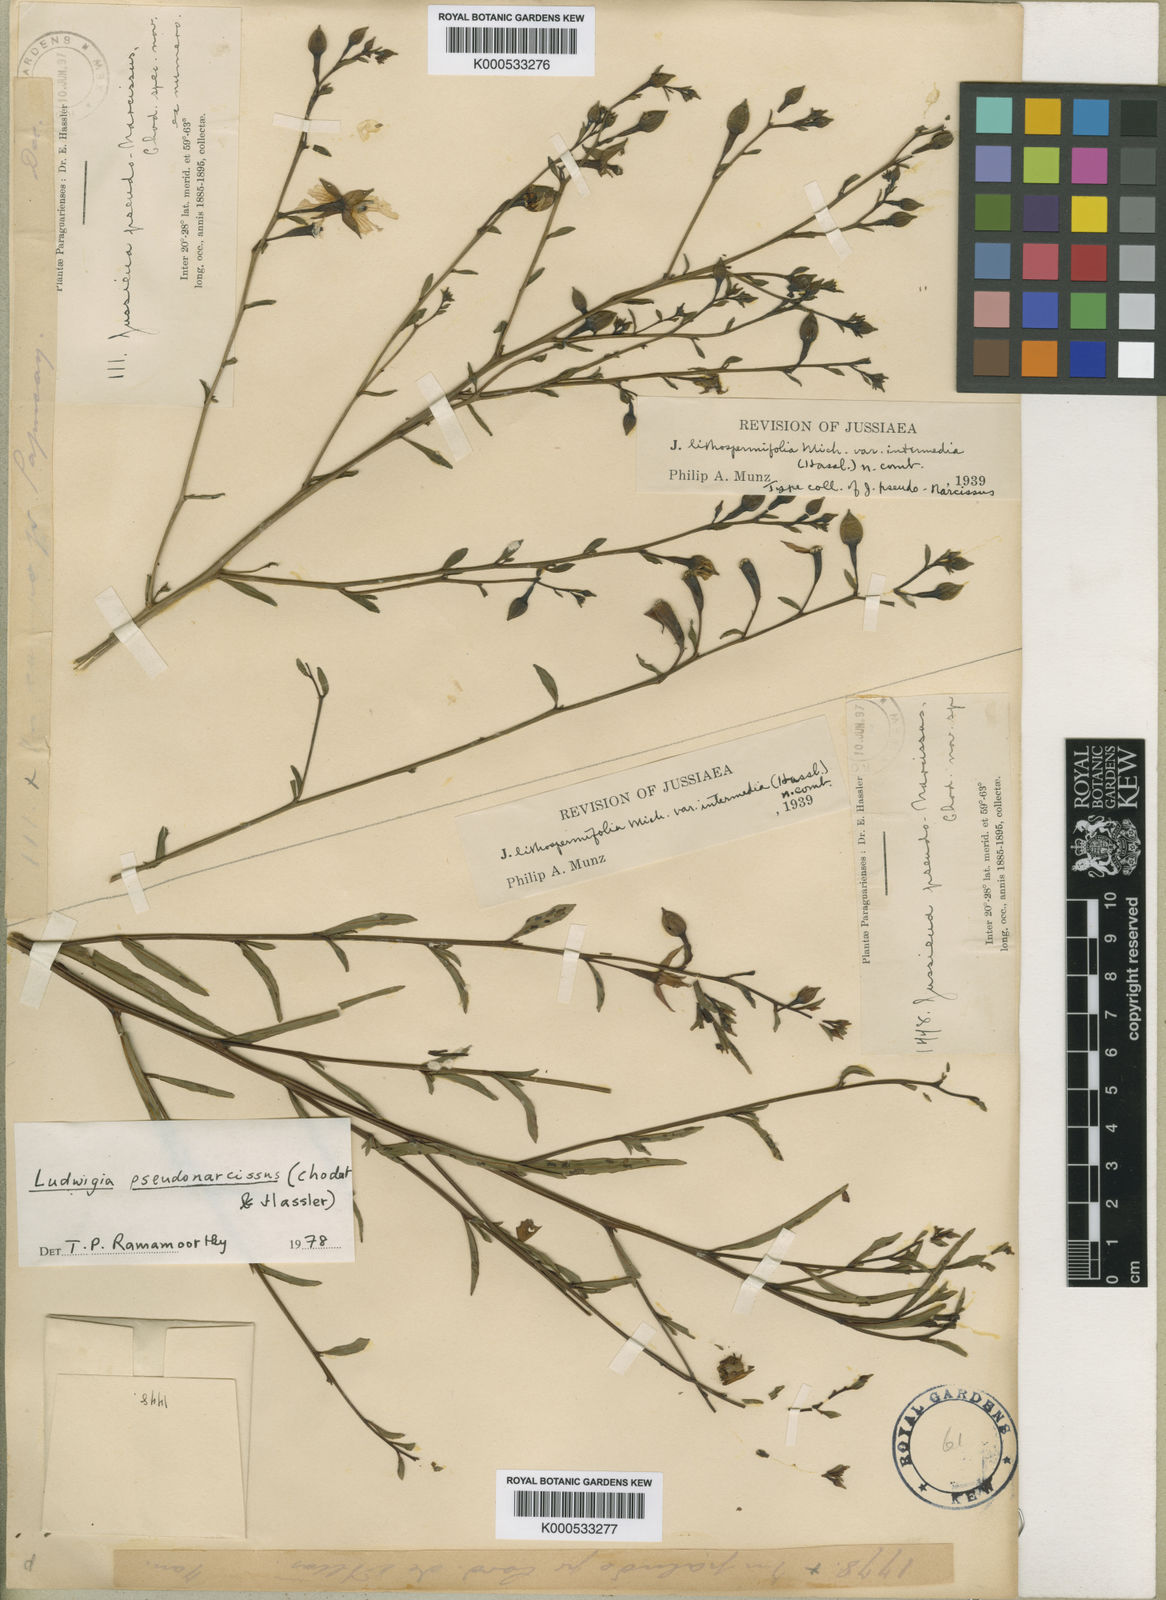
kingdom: Plantae
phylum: Tracheophyta
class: Magnoliopsida
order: Myrtales
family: Onagraceae
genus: Ludwigia
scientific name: Ludwigia pseudonarcissus
